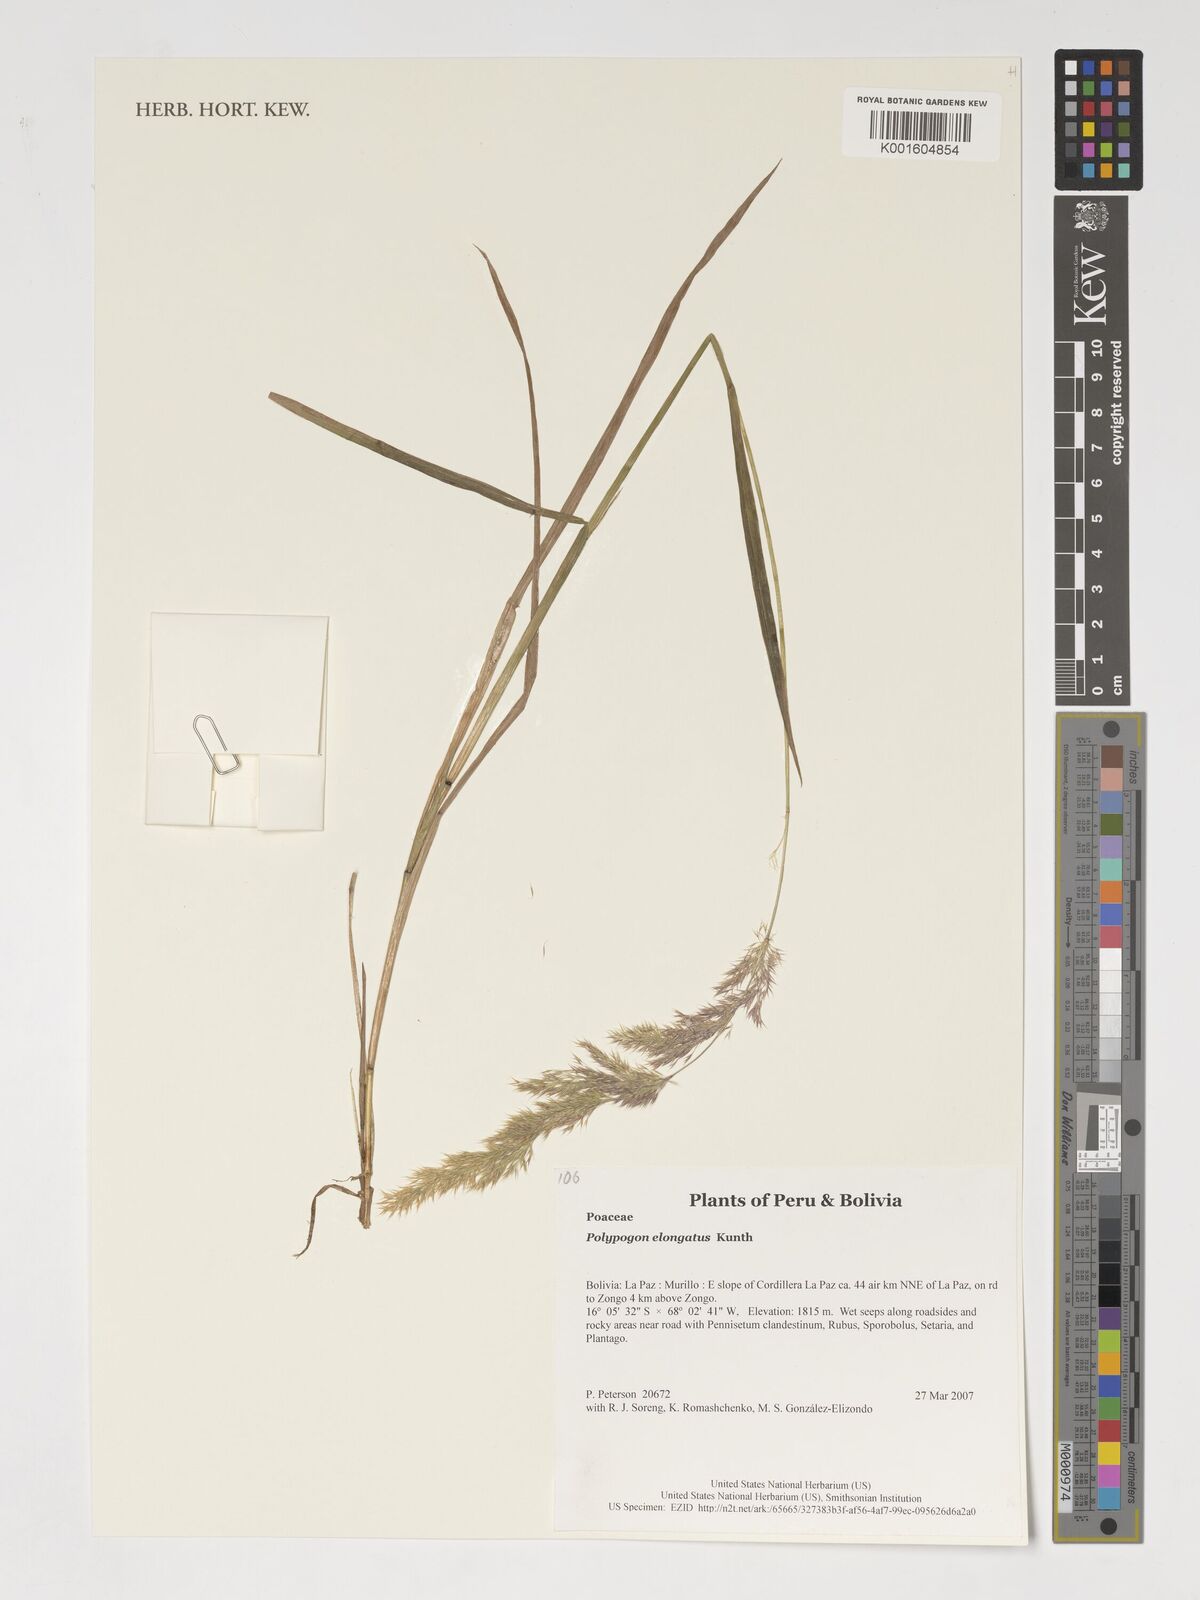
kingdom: Plantae
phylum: Tracheophyta
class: Liliopsida
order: Poales
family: Poaceae
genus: Polypogon
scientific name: Polypogon elongatus
